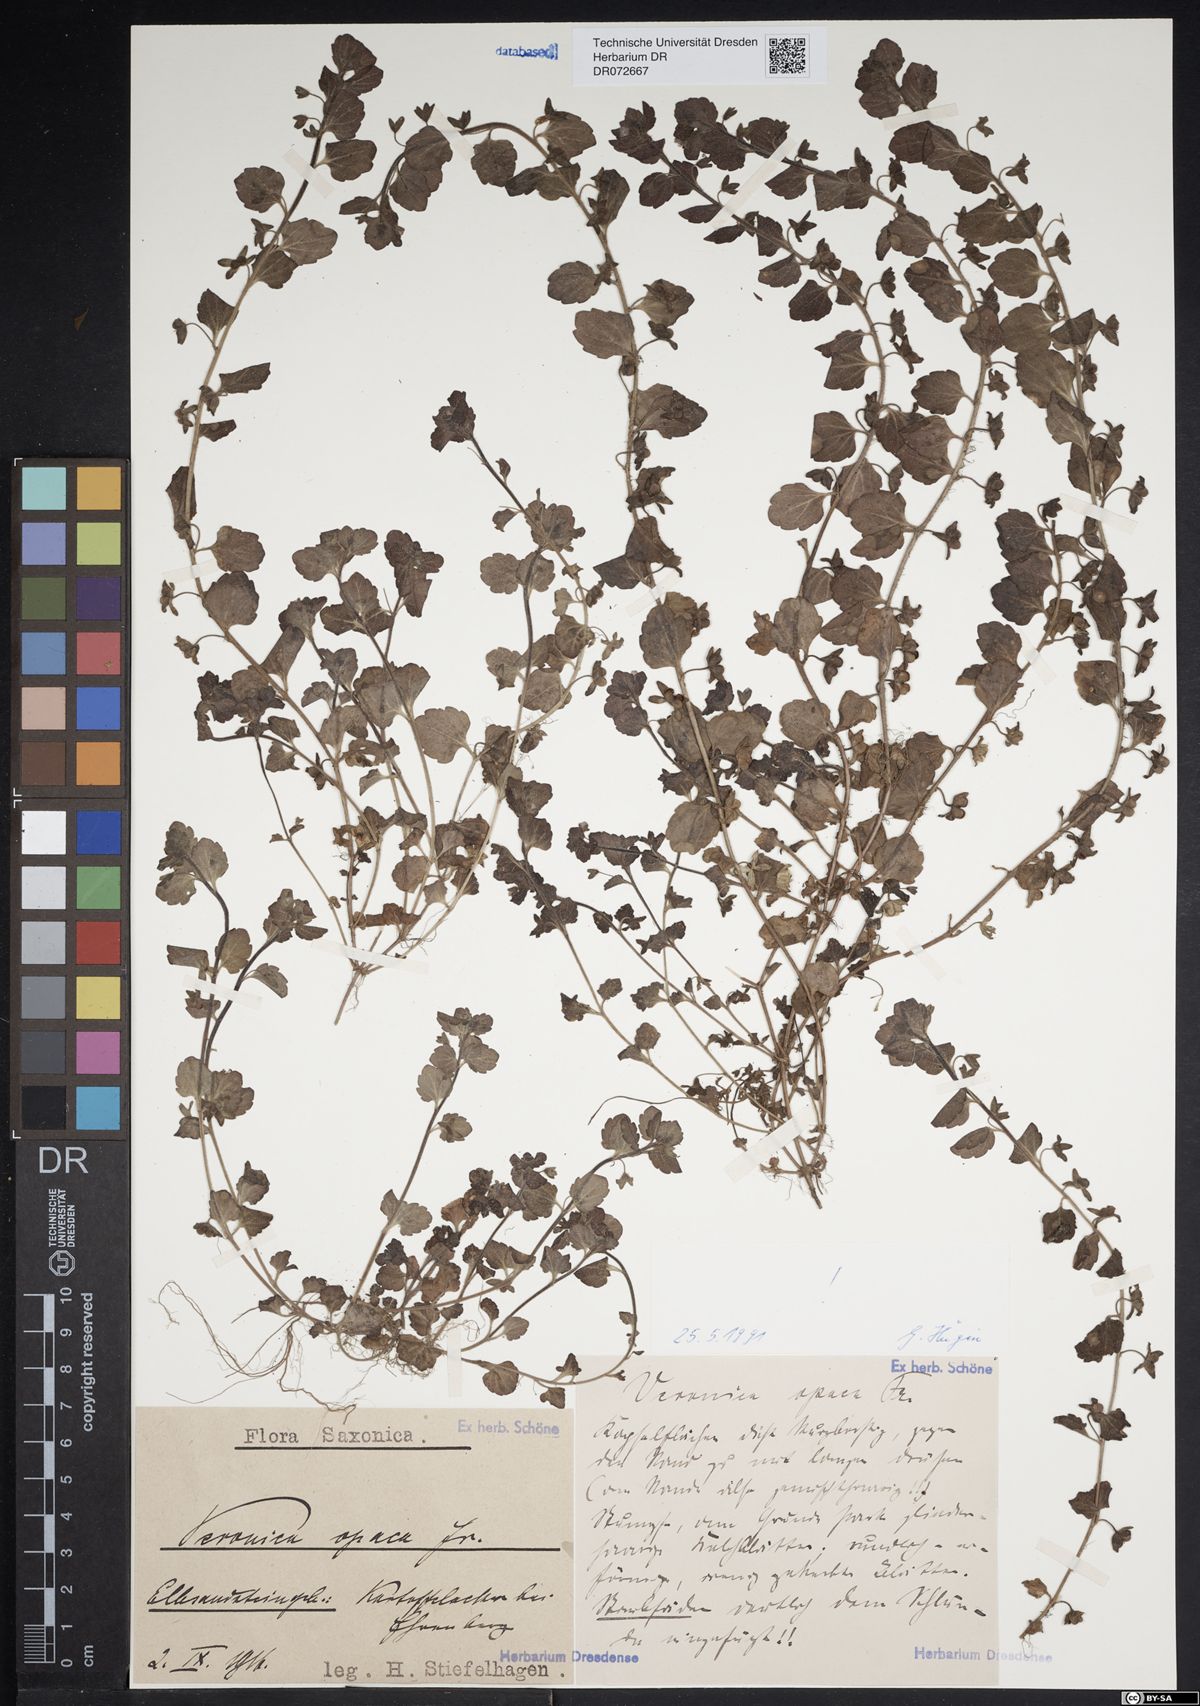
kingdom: Plantae
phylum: Tracheophyta
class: Magnoliopsida
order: Lamiales
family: Plantaginaceae
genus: Veronica
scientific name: Veronica opaca
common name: Dark speedwell
